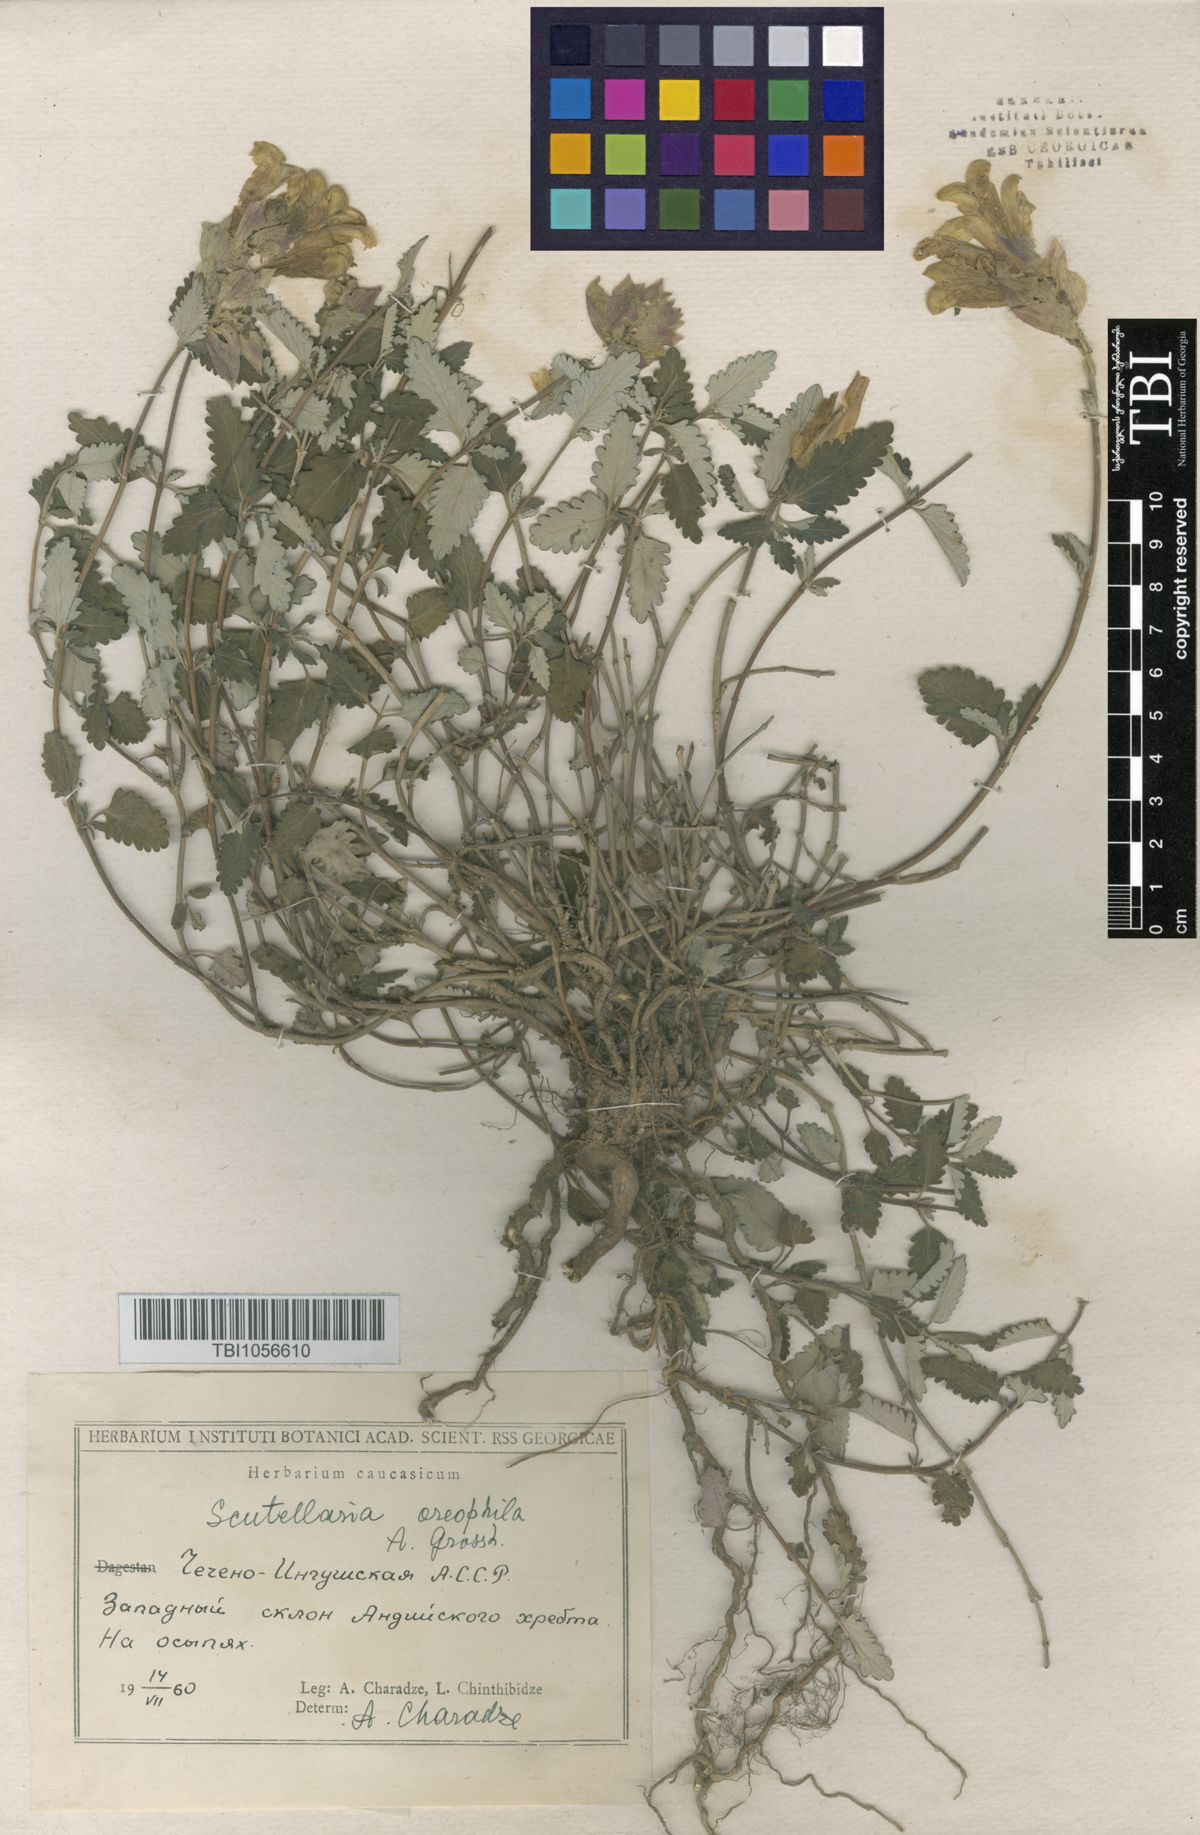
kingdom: Plantae
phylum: Tracheophyta
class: Magnoliopsida
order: Lamiales
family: Lamiaceae
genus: Scutellaria
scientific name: Scutellaria oreophila
